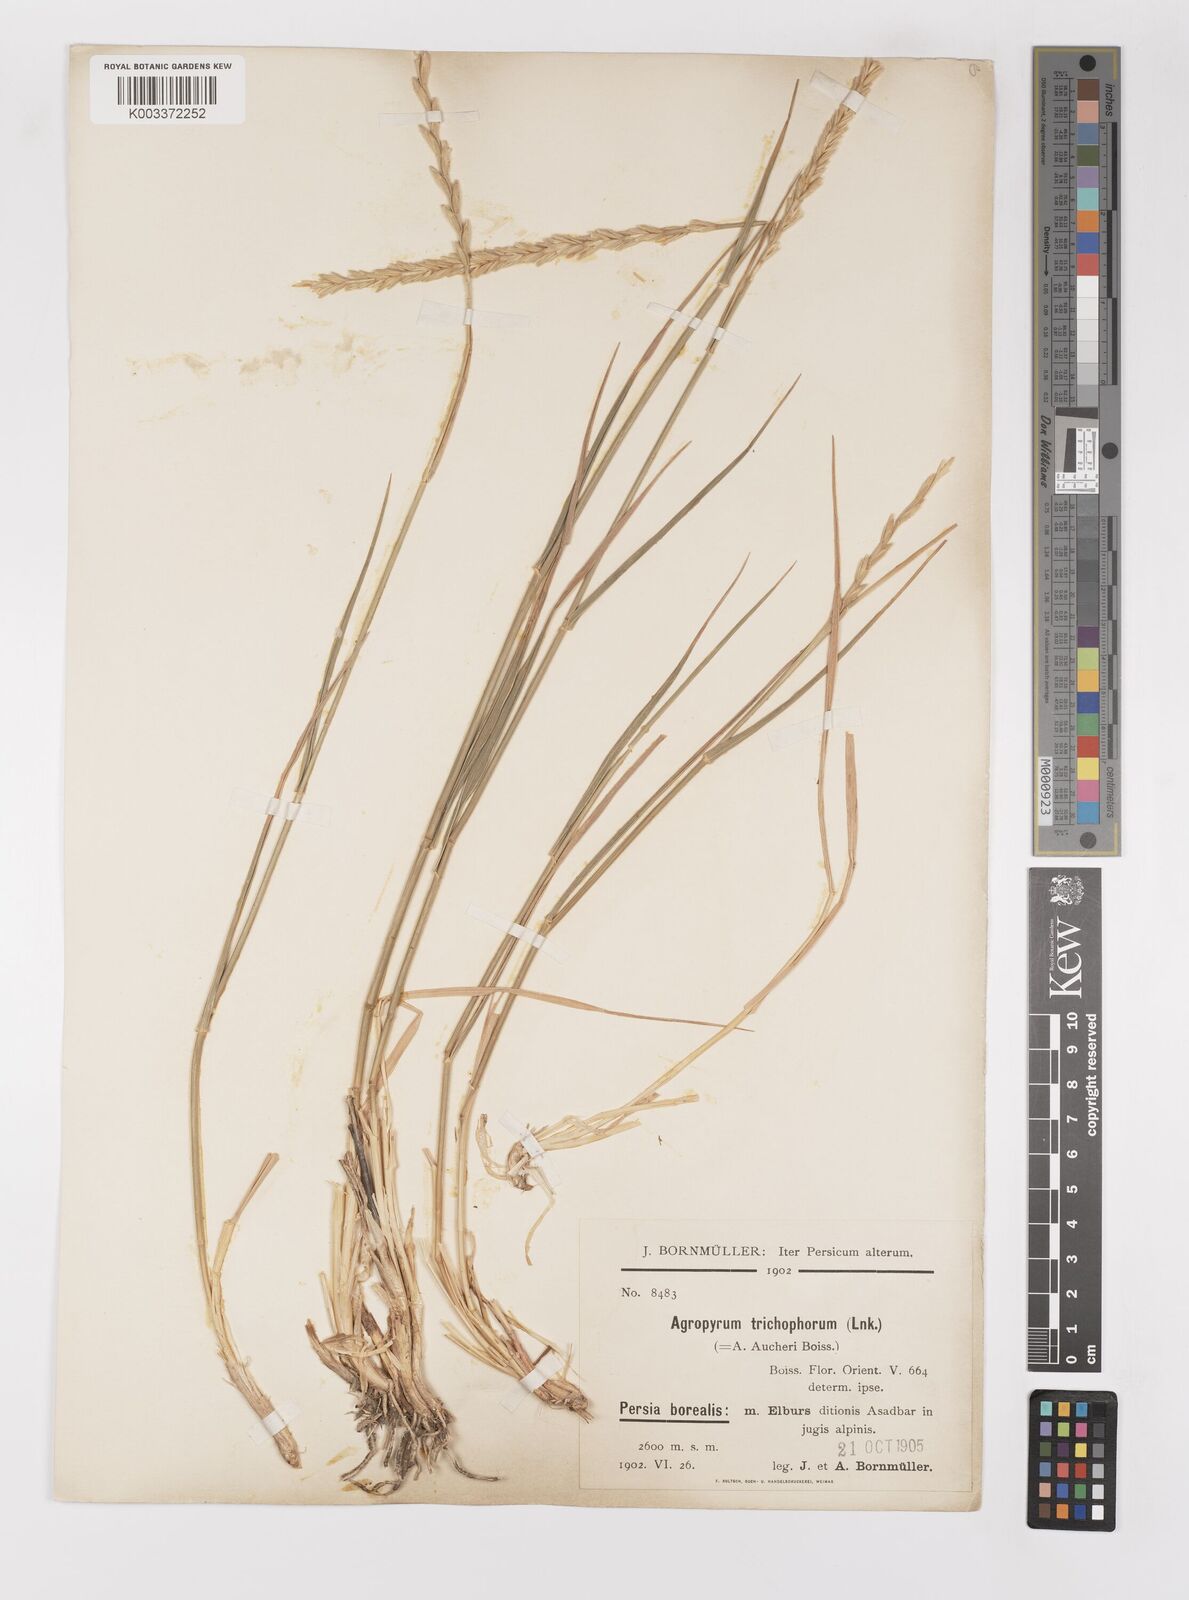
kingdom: Plantae
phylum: Tracheophyta
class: Liliopsida
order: Poales
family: Poaceae
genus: Thinopyrum
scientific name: Thinopyrum intermedium
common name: Intermediate wheatgrass
